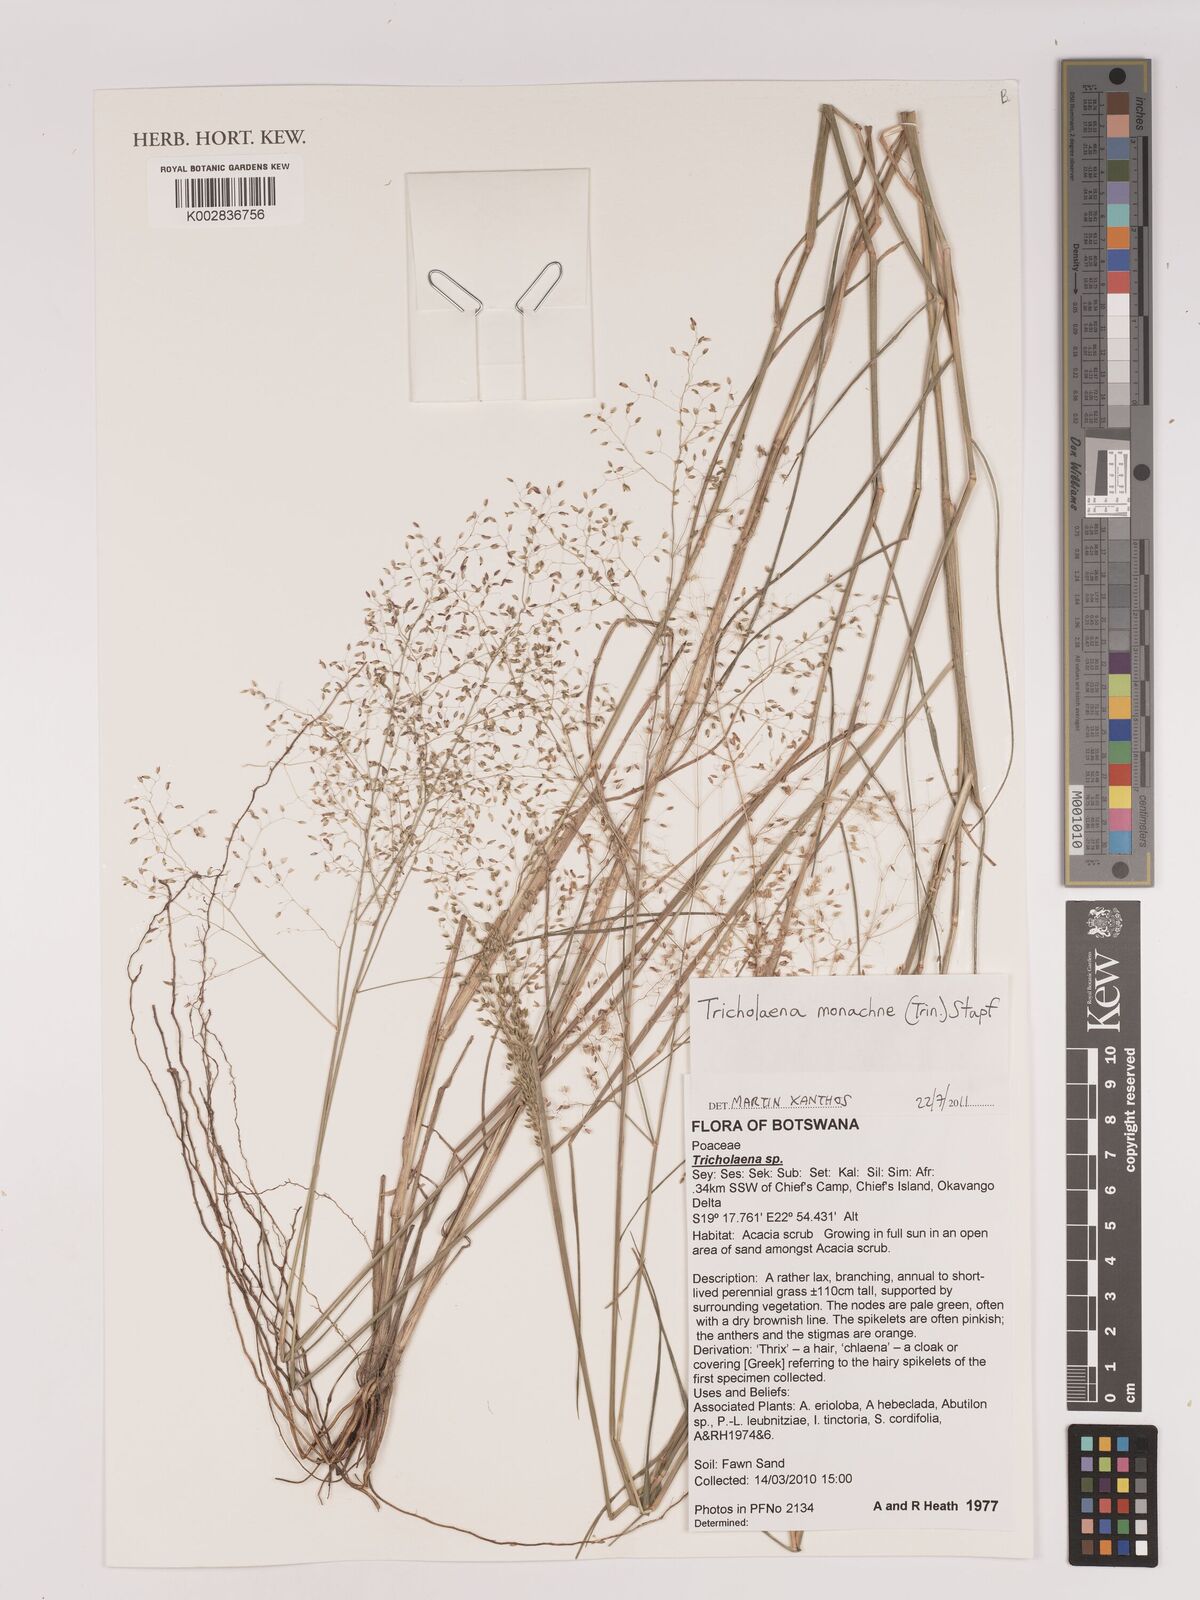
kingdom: Plantae
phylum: Tracheophyta
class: Liliopsida
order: Poales
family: Poaceae
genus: Tricholaena
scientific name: Tricholaena monachne
